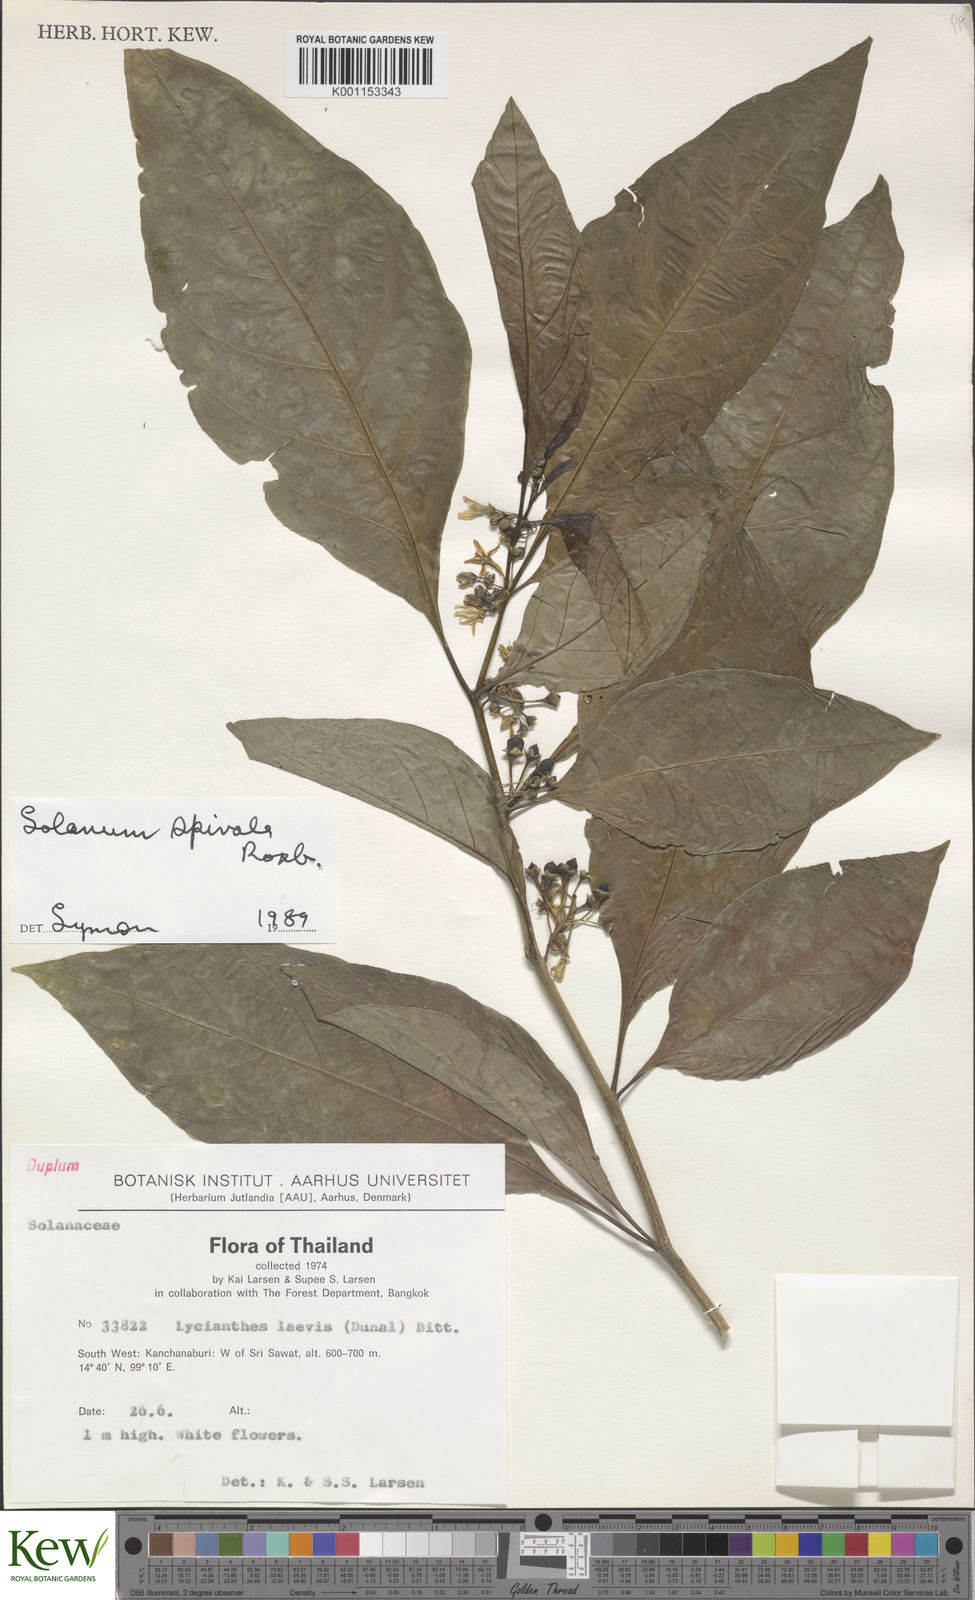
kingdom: Plantae
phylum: Tracheophyta
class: Magnoliopsida
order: Solanales
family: Solanaceae
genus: Solanum
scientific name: Solanum spirale
